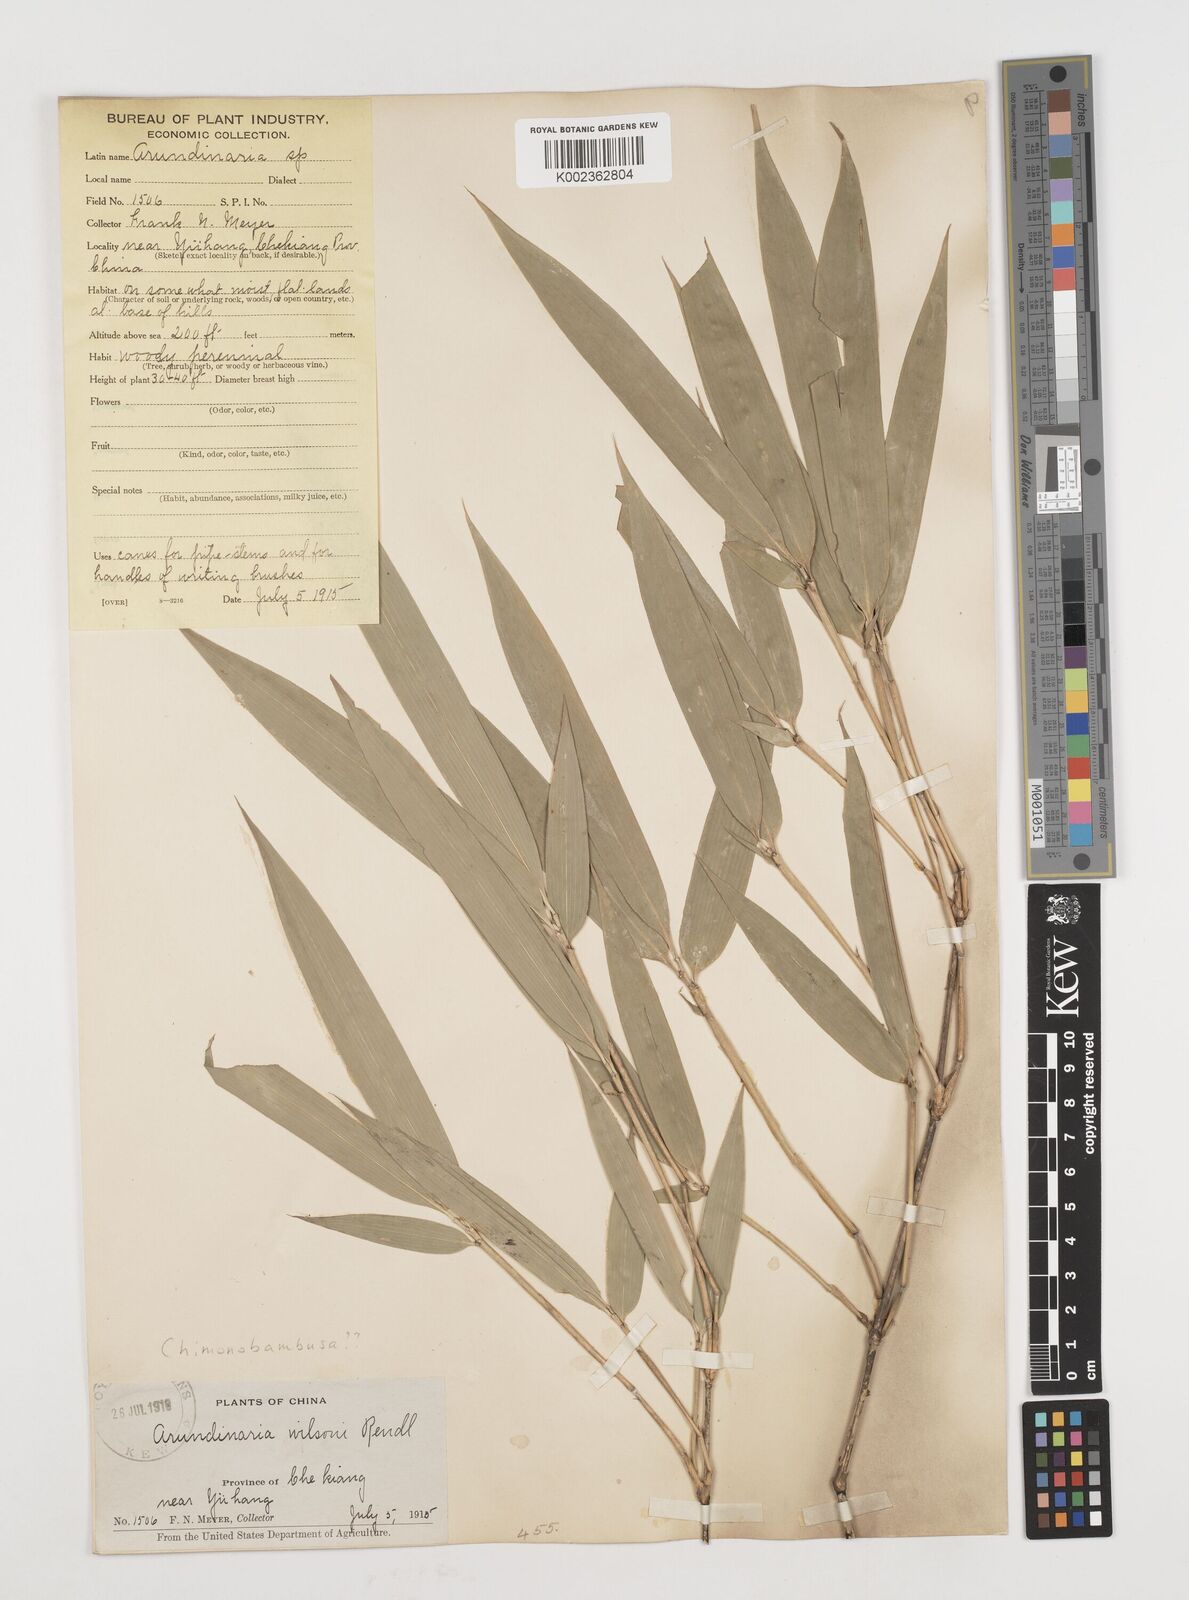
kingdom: Plantae
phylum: Tracheophyta
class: Liliopsida
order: Poales
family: Poaceae
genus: Chimonobambusa
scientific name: Chimonobambusa
